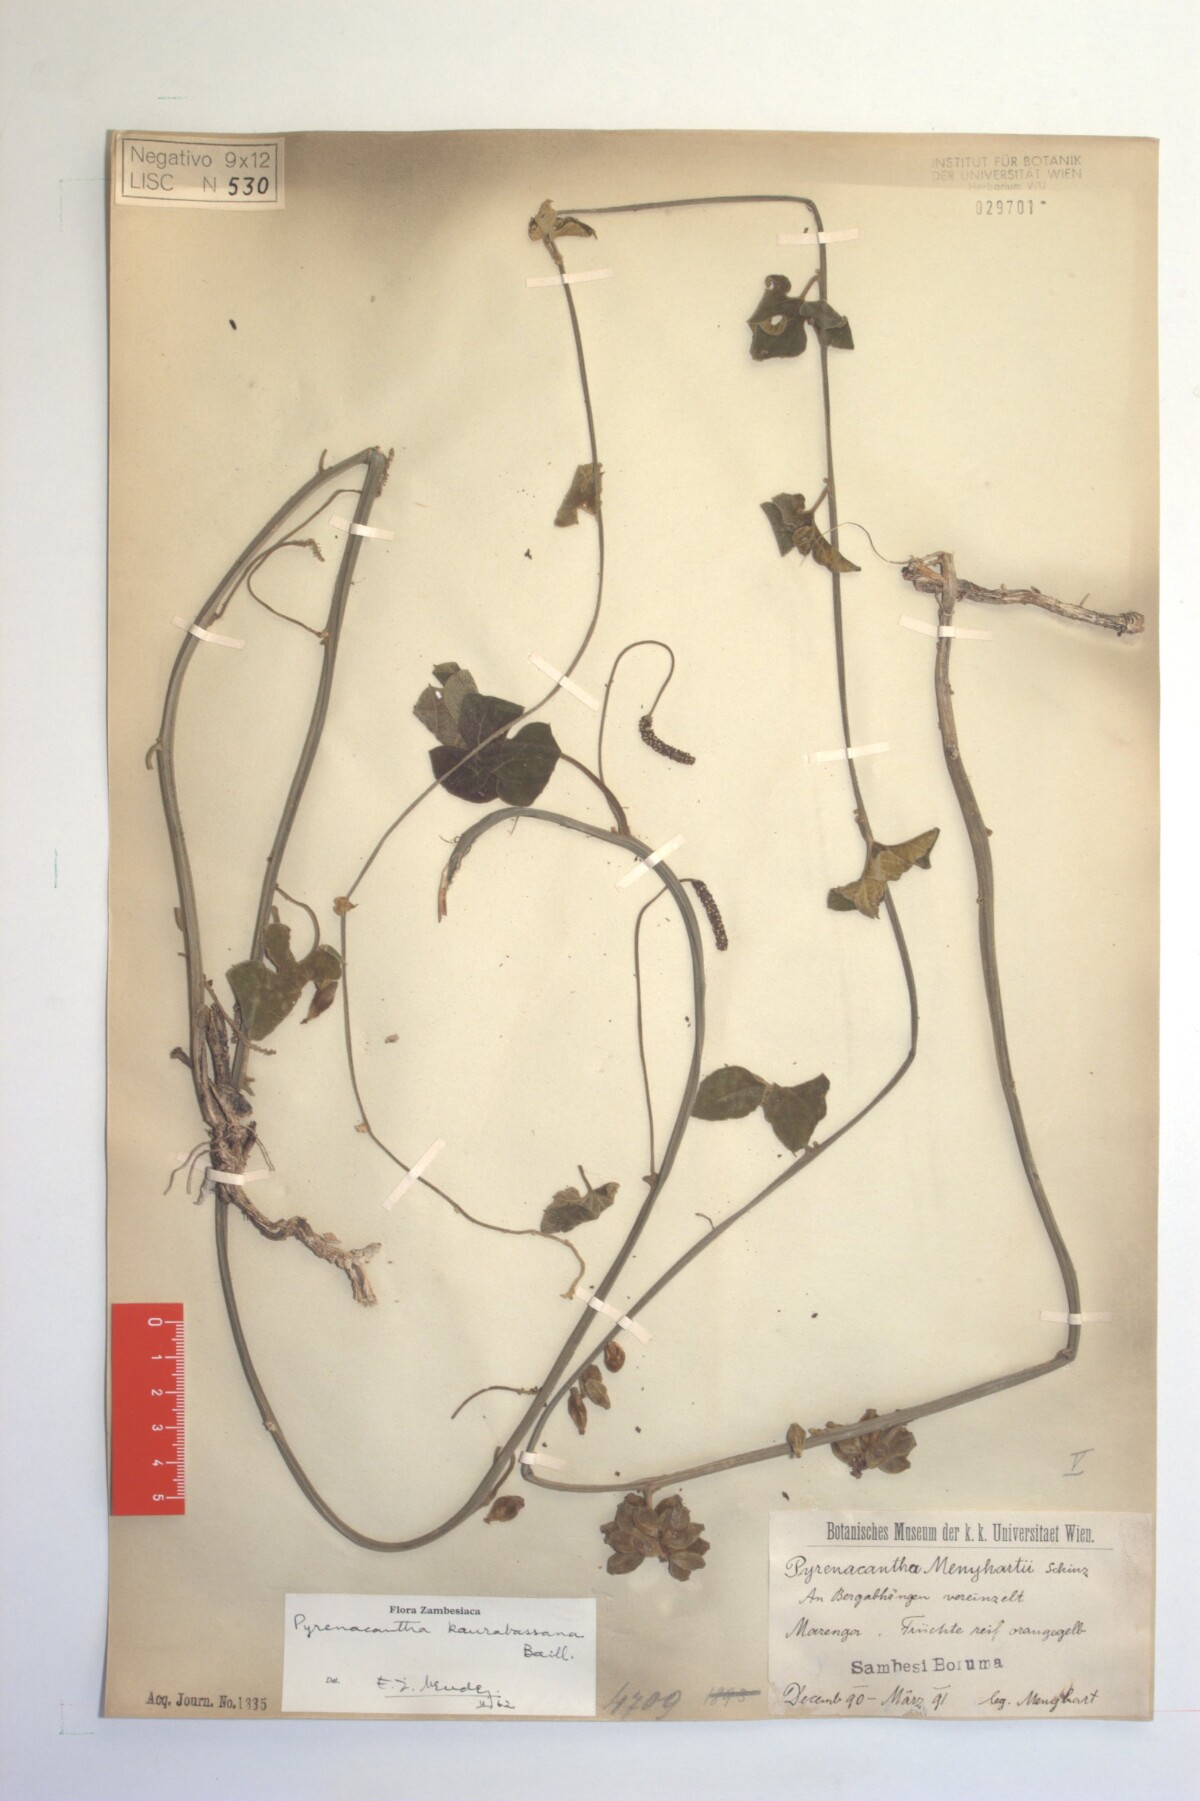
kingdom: Plantae
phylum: Tracheophyta
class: Magnoliopsida
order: Icacinales
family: Icacinaceae
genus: Pyrenacantha
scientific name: Pyrenacantha kaurabassana
